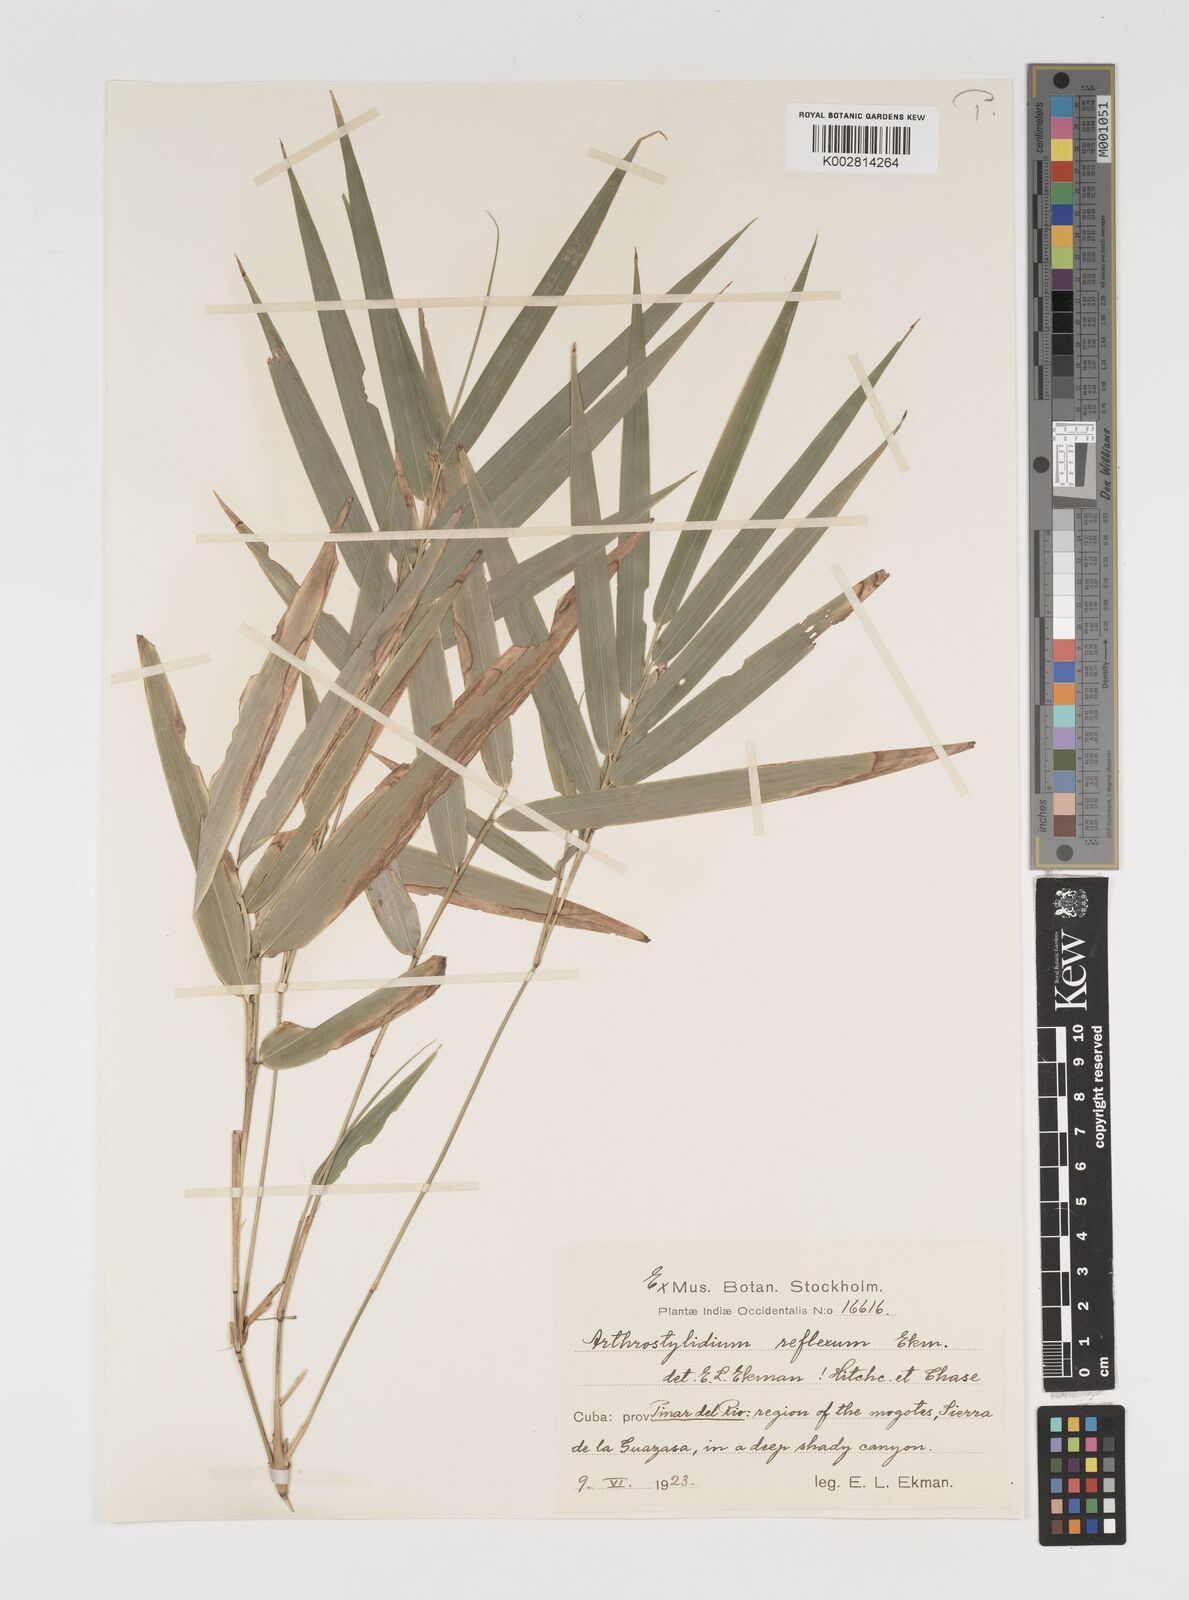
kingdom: Plantae
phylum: Tracheophyta
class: Liliopsida
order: Poales
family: Poaceae
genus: Arthrostylidium
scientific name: Arthrostylidium reflexum
